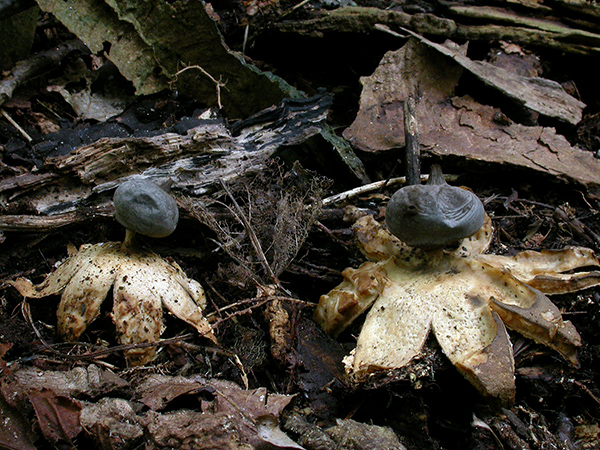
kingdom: Fungi
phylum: Basidiomycota
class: Agaricomycetes
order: Geastrales
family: Geastraceae
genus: Geastrum
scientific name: Geastrum pectinatum
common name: stilket stjernebold
